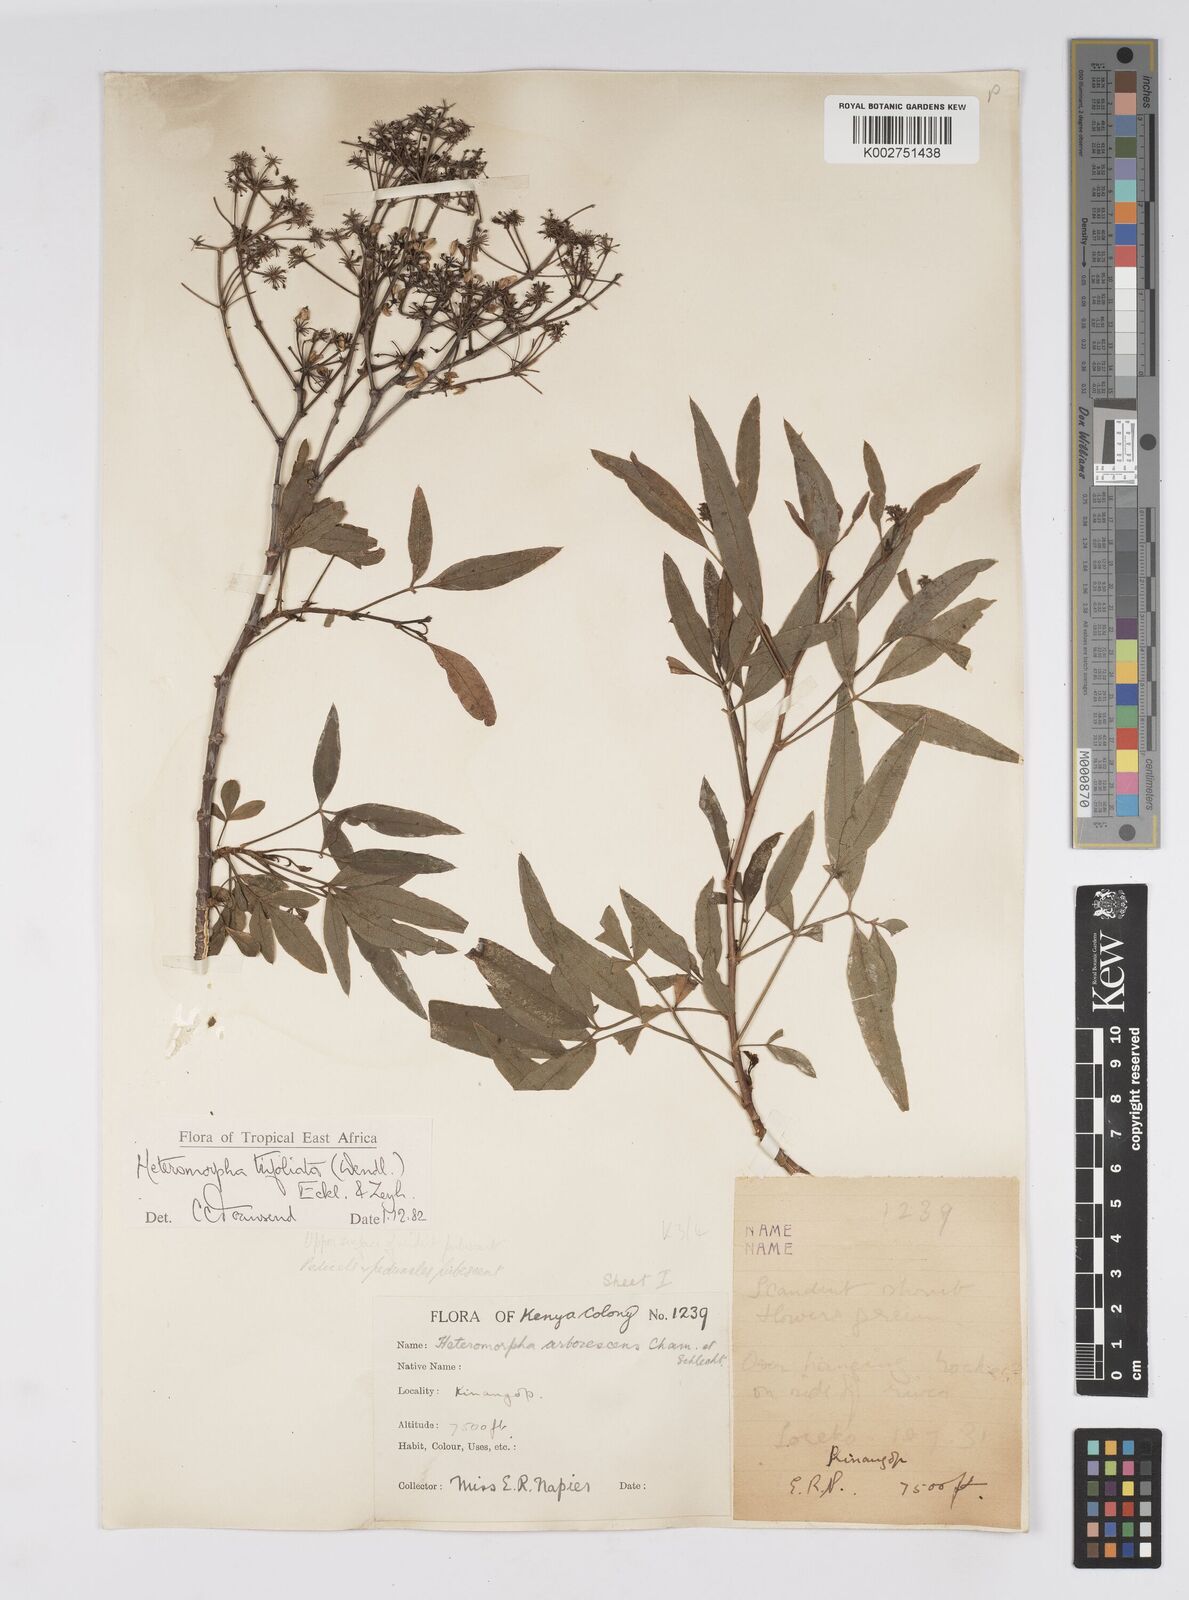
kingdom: Plantae
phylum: Tracheophyta
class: Magnoliopsida
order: Apiales
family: Apiaceae
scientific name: Apiaceae
